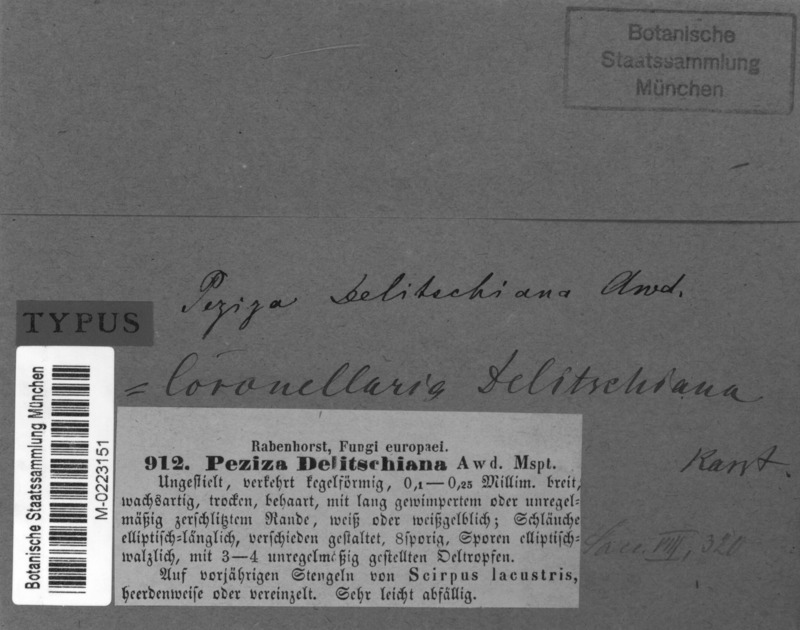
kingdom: Fungi
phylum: Ascomycota
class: Leotiomycetes
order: Helotiales
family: Dermateaceae
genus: Coronellaria
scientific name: Coronellaria delitschiana
